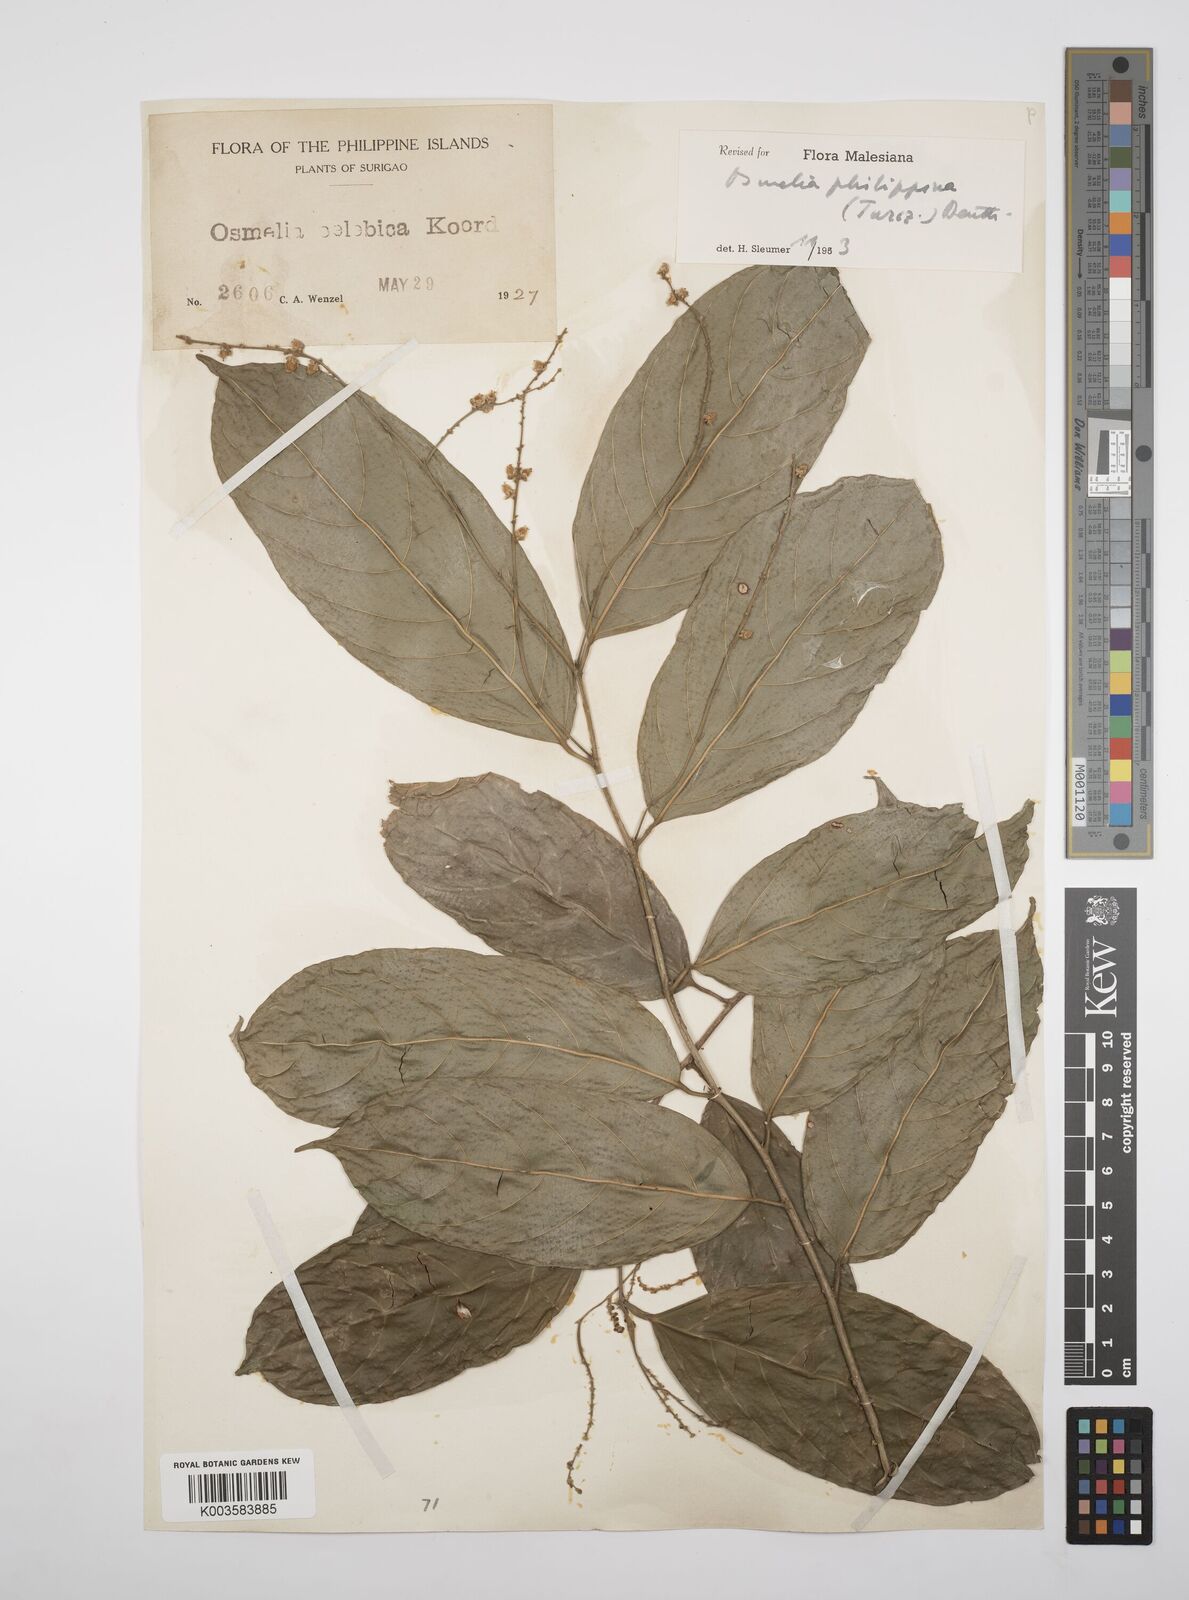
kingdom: Plantae
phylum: Tracheophyta
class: Magnoliopsida
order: Malpighiales
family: Salicaceae
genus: Osmelia
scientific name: Osmelia philippina
